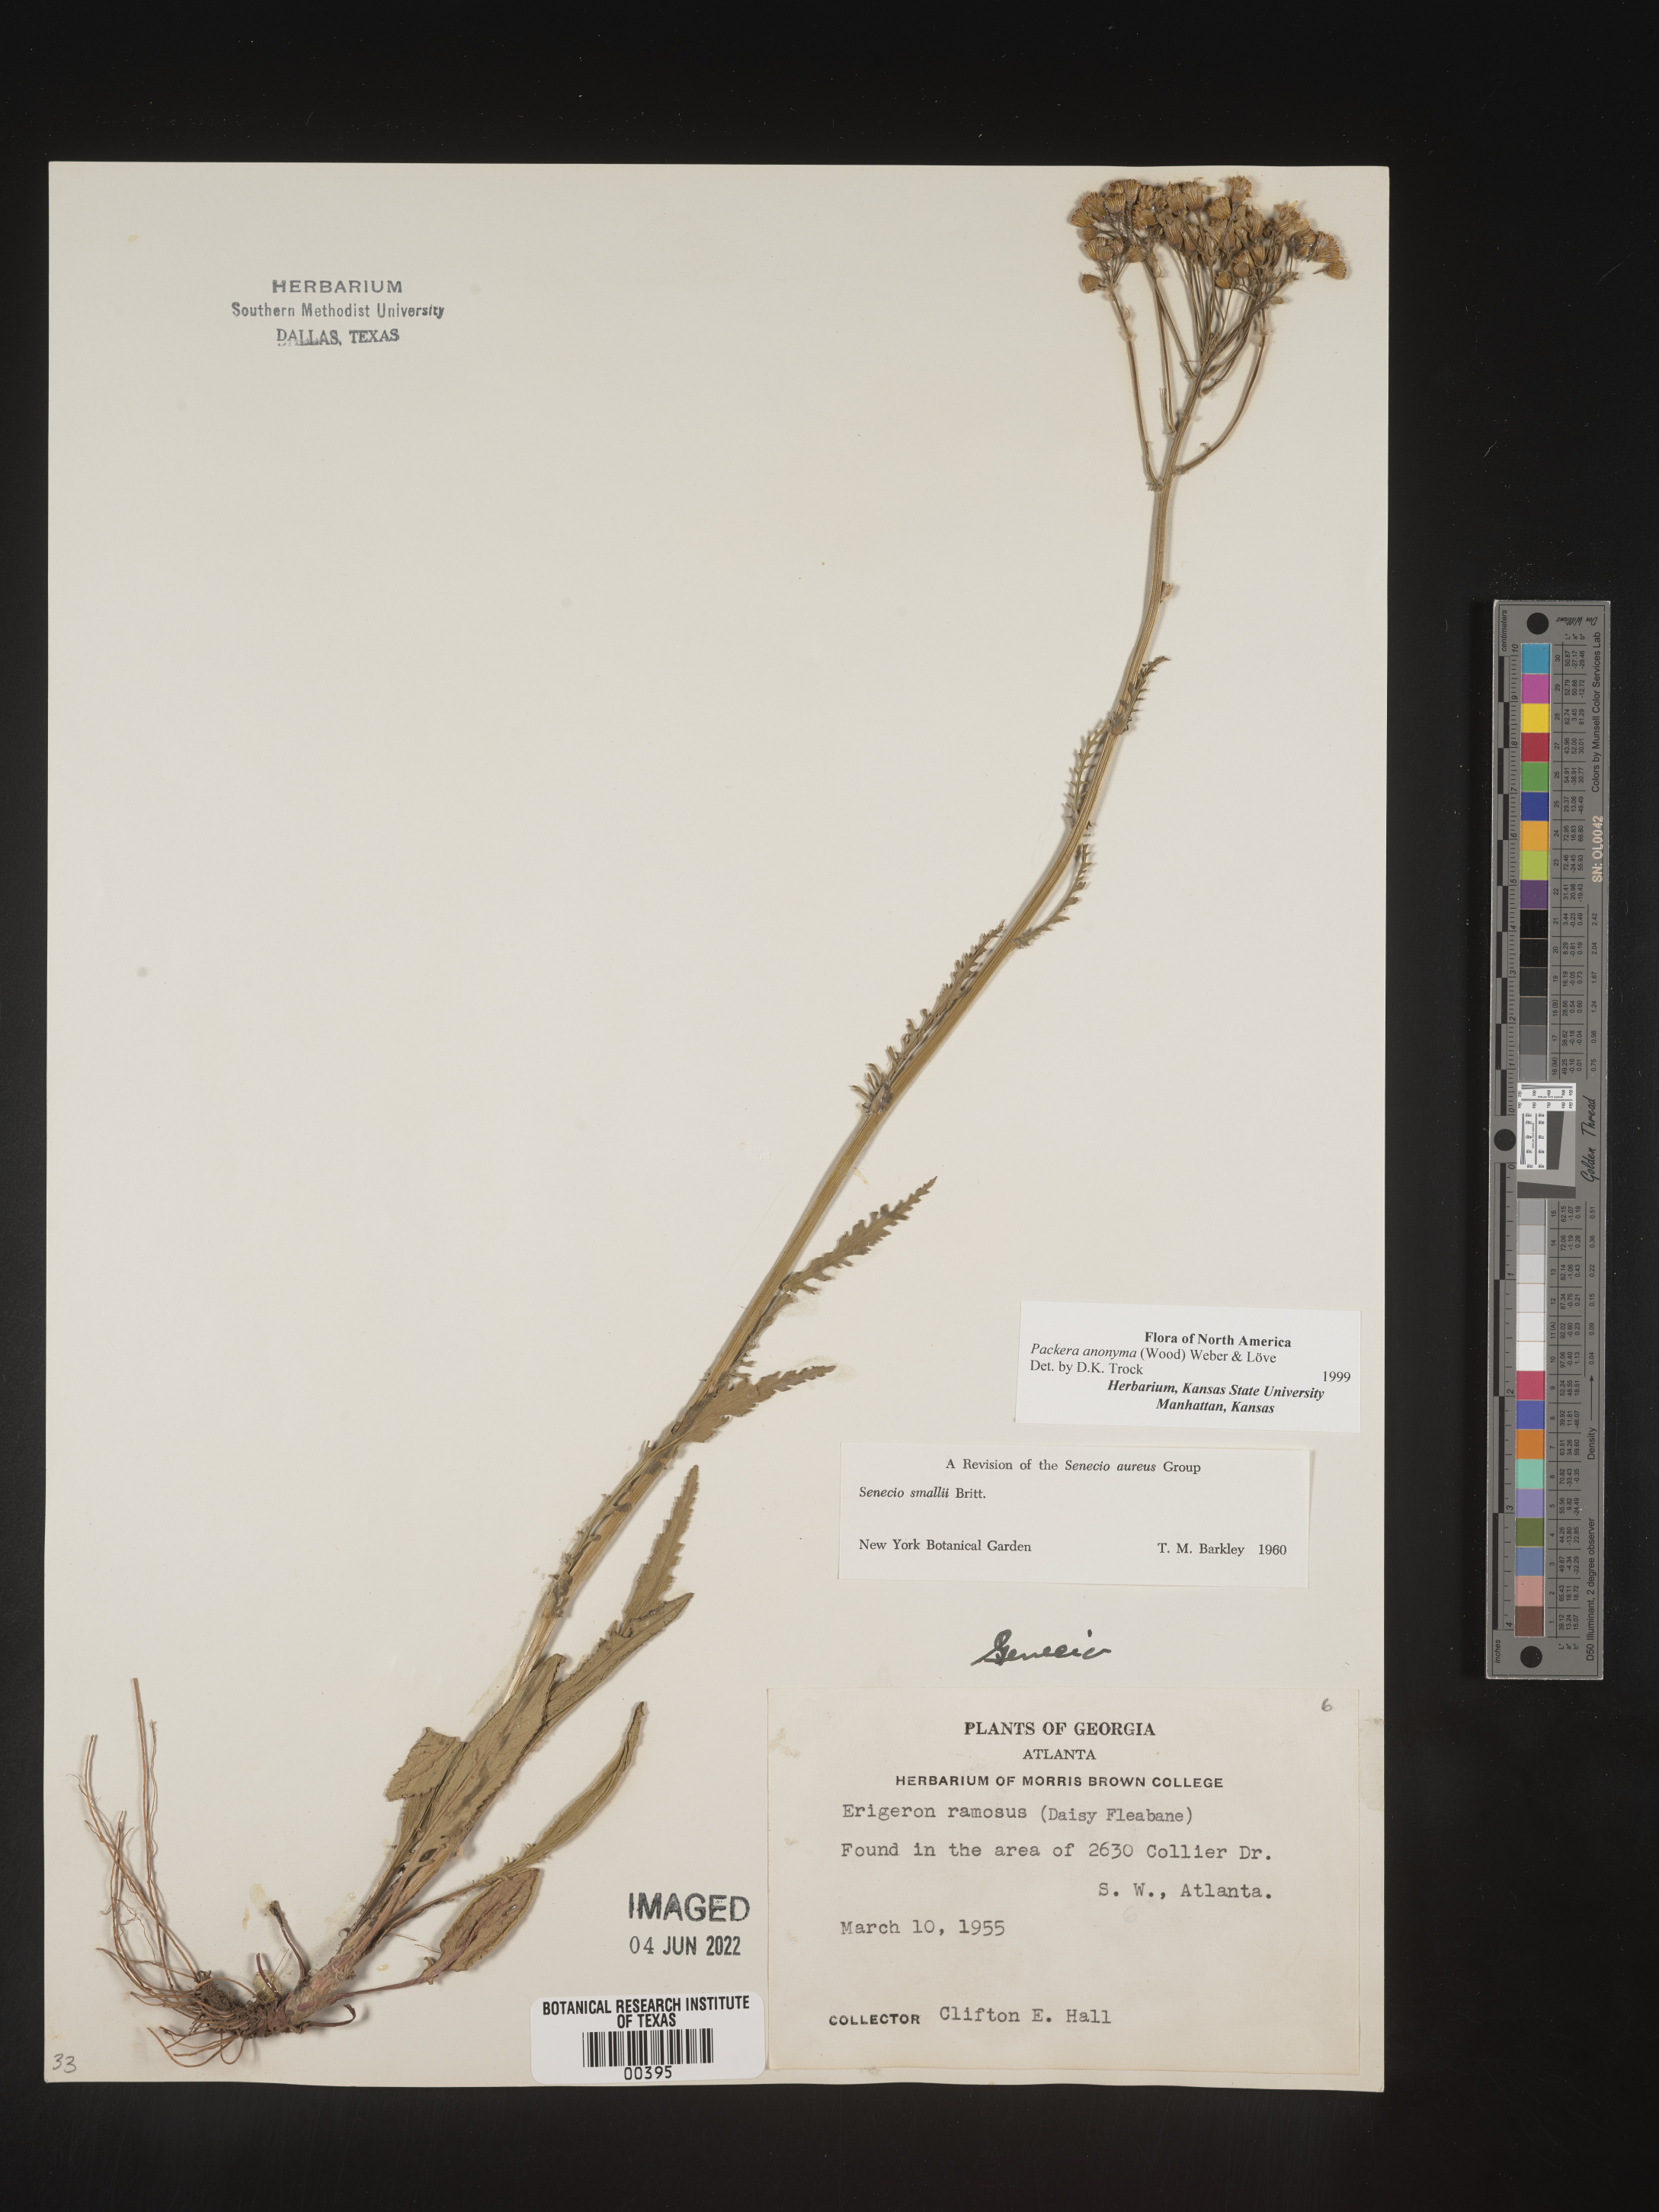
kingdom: Plantae
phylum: Tracheophyta
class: Magnoliopsida
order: Asterales
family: Asteraceae
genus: Packera
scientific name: Packera anonyma
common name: Small ragwort
